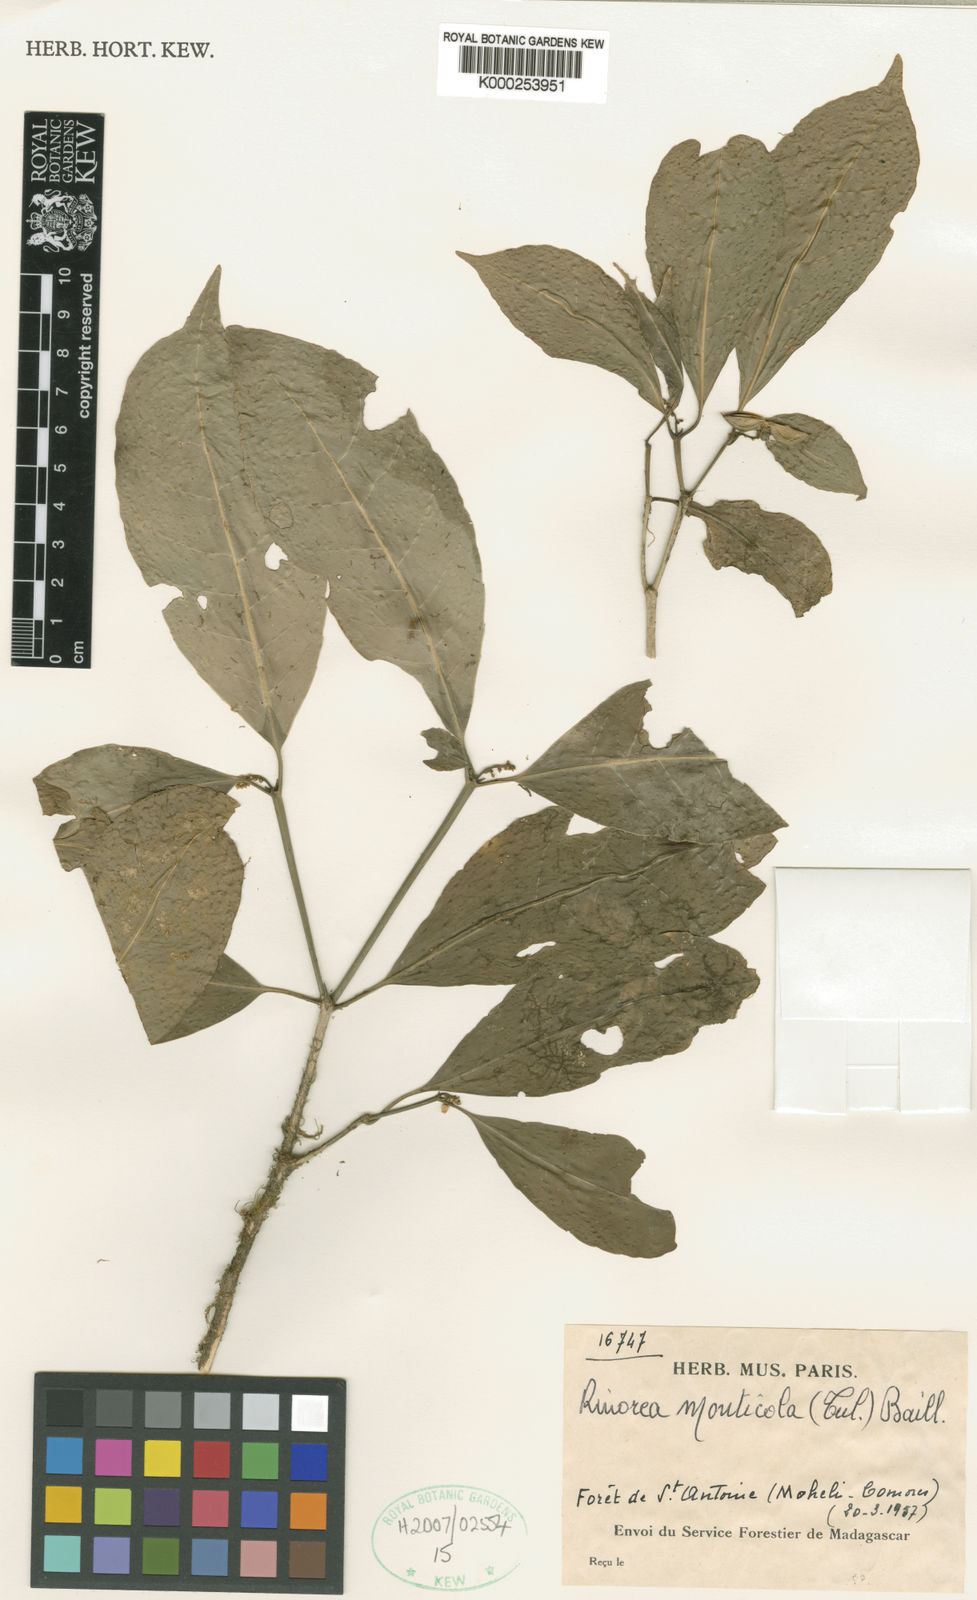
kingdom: Plantae
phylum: Tracheophyta
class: Magnoliopsida
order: Malpighiales
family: Violaceae
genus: Rinorea
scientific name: Rinorea monticola
